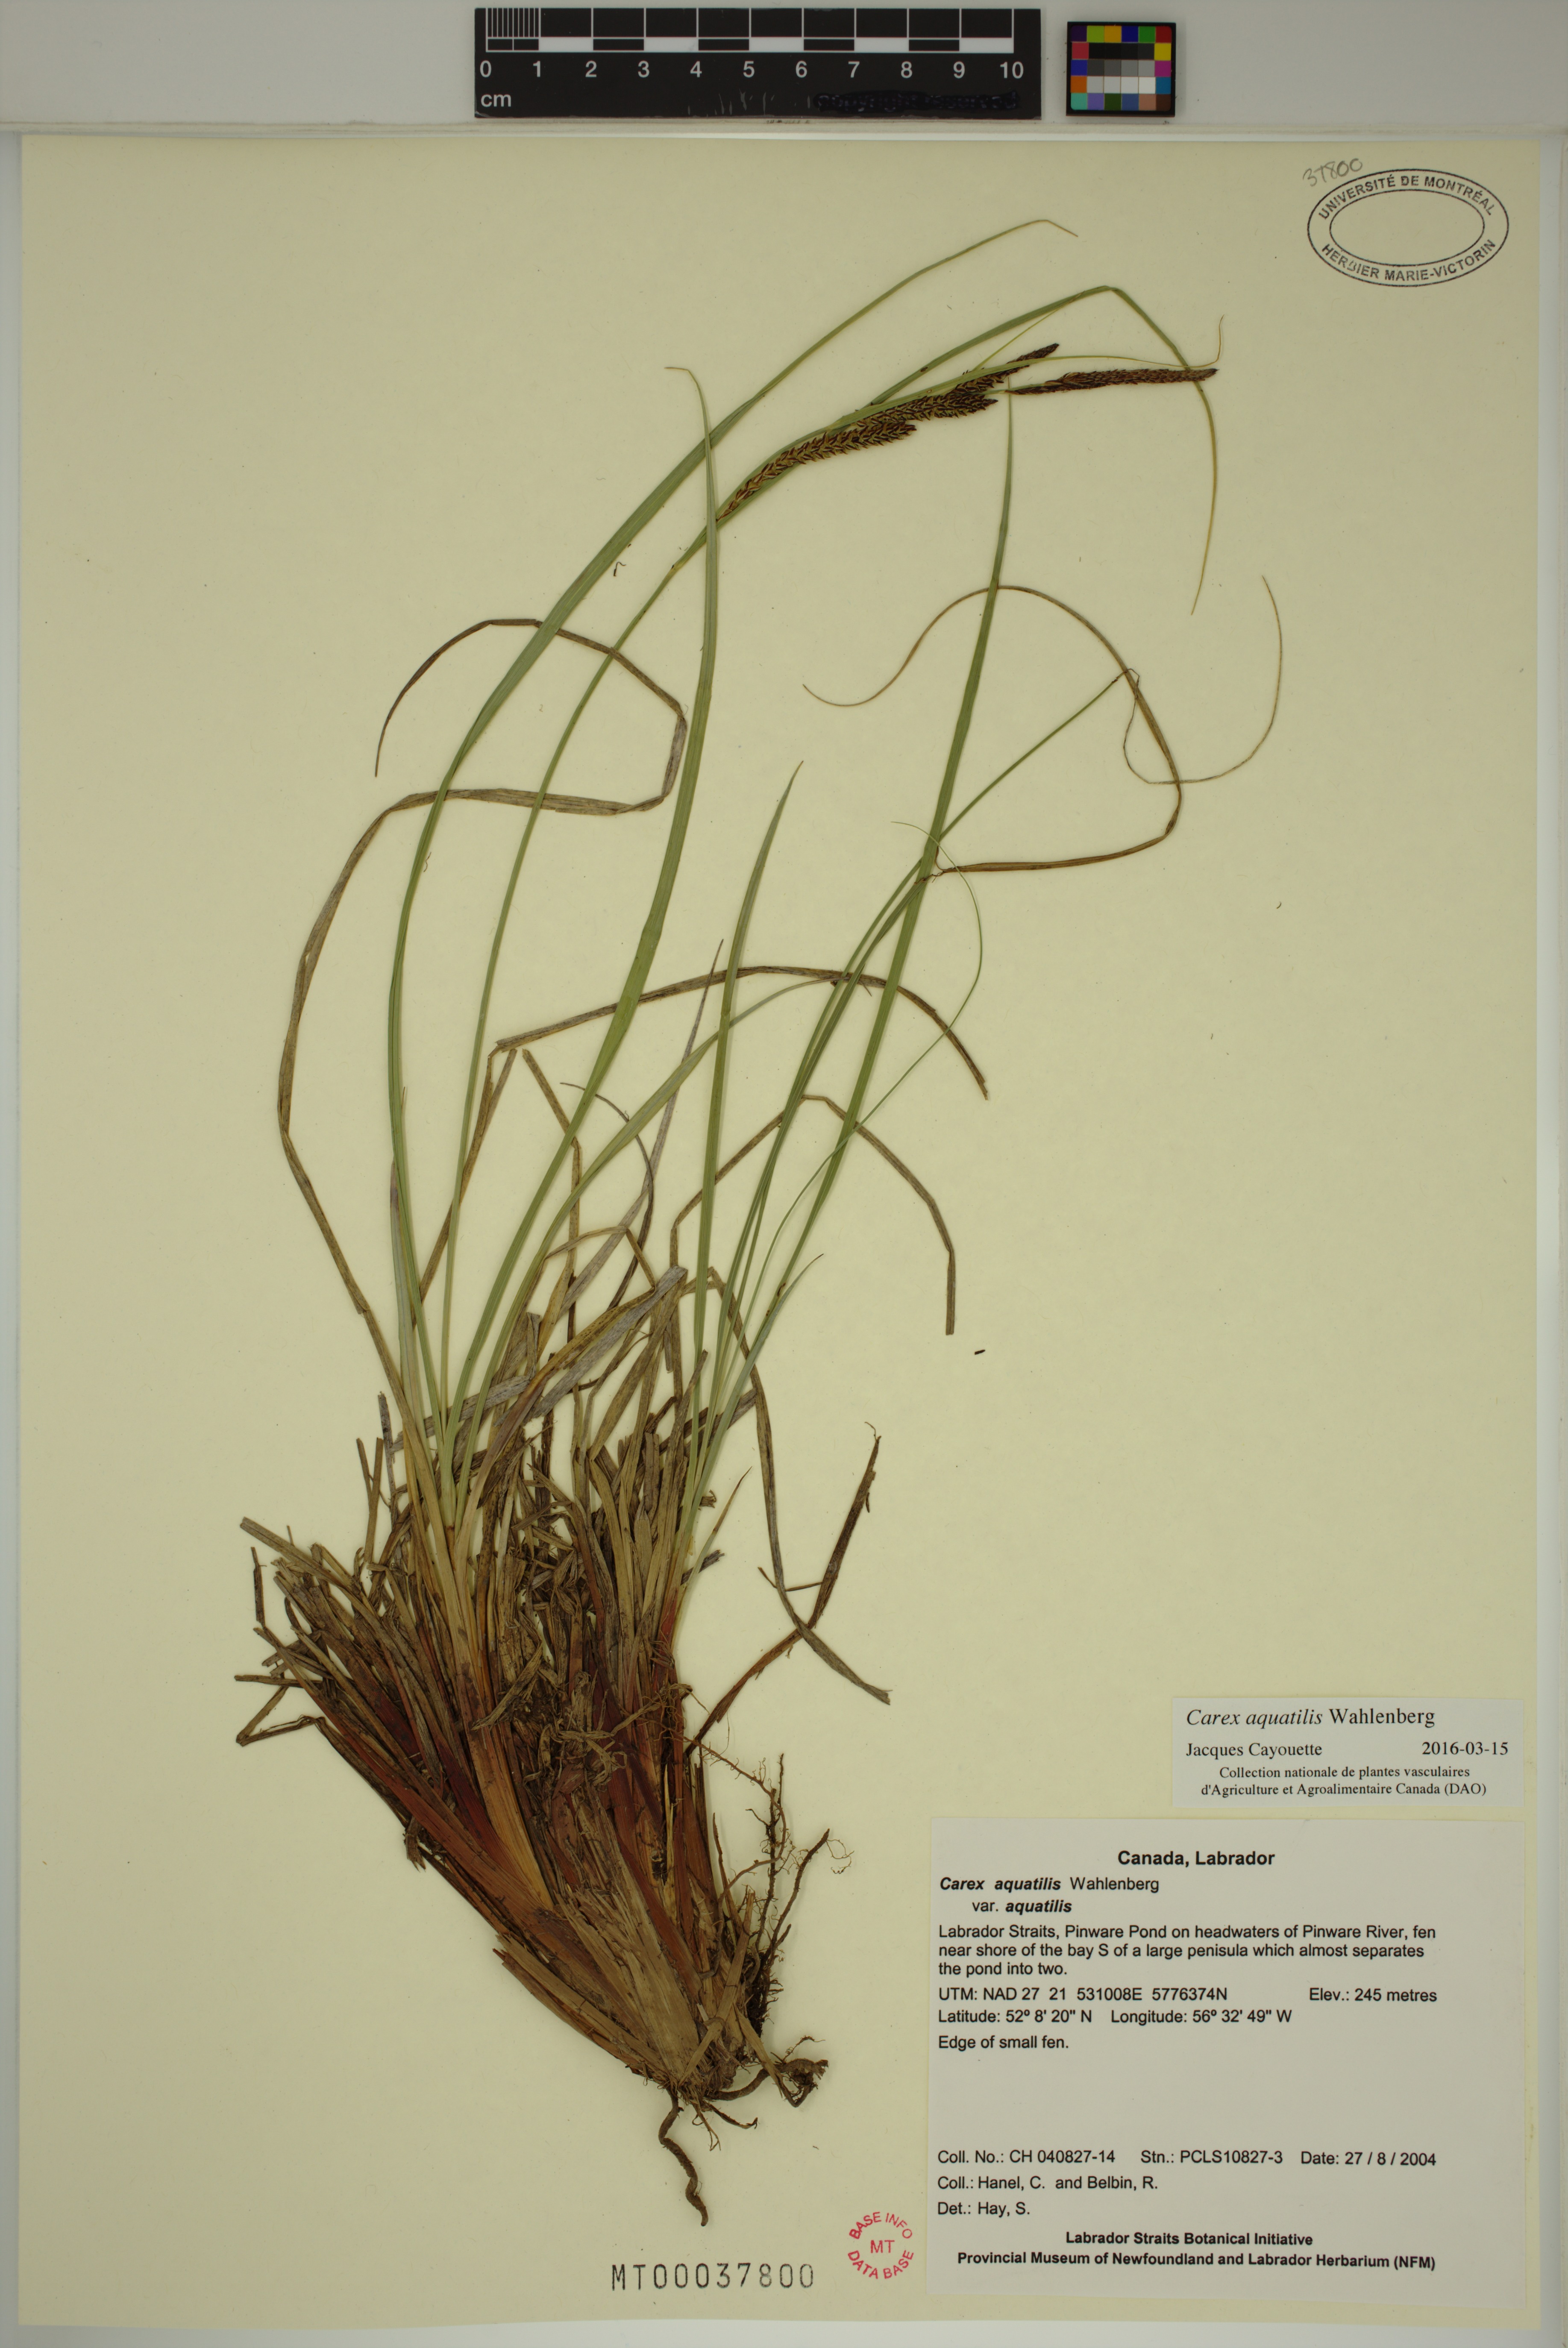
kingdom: Plantae
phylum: Tracheophyta
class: Liliopsida
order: Poales
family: Cyperaceae
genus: Carex
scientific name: Carex aquatilis
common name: Water sedge
